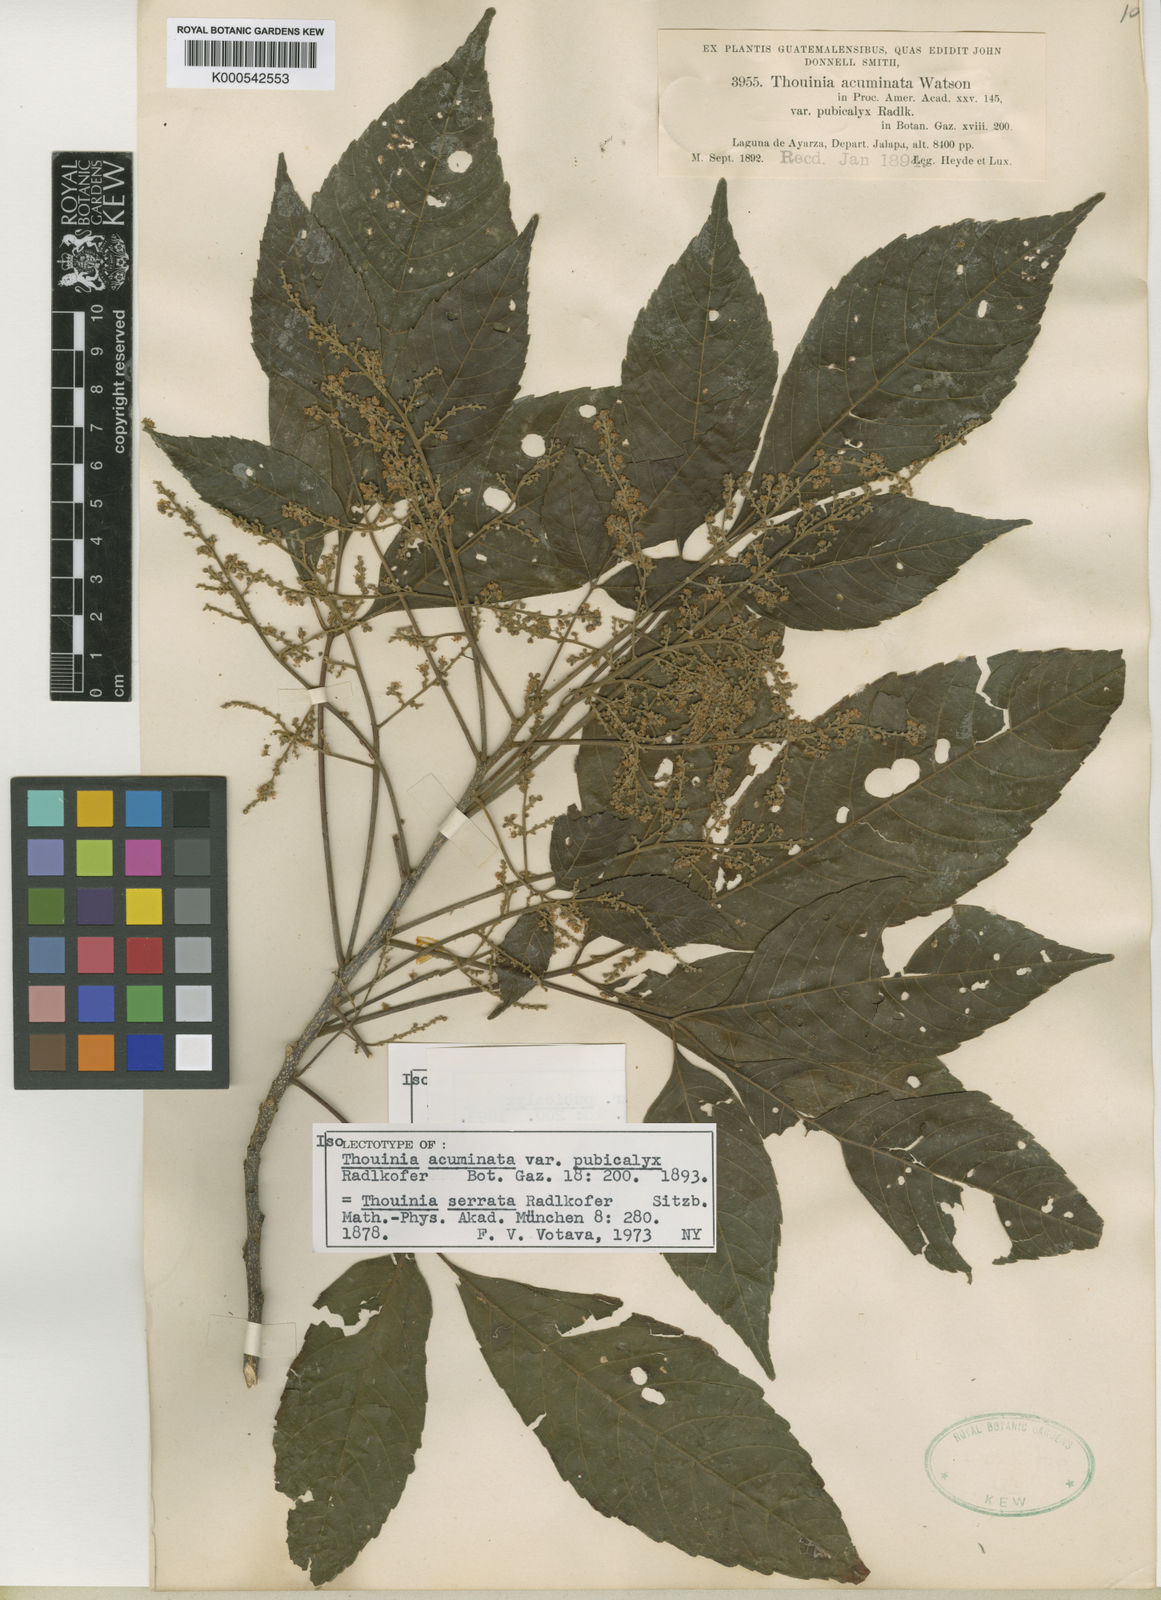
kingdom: Plantae
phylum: Tracheophyta
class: Magnoliopsida
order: Sapindales
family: Sapindaceae
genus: Thouinia
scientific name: Thouinia serrata
